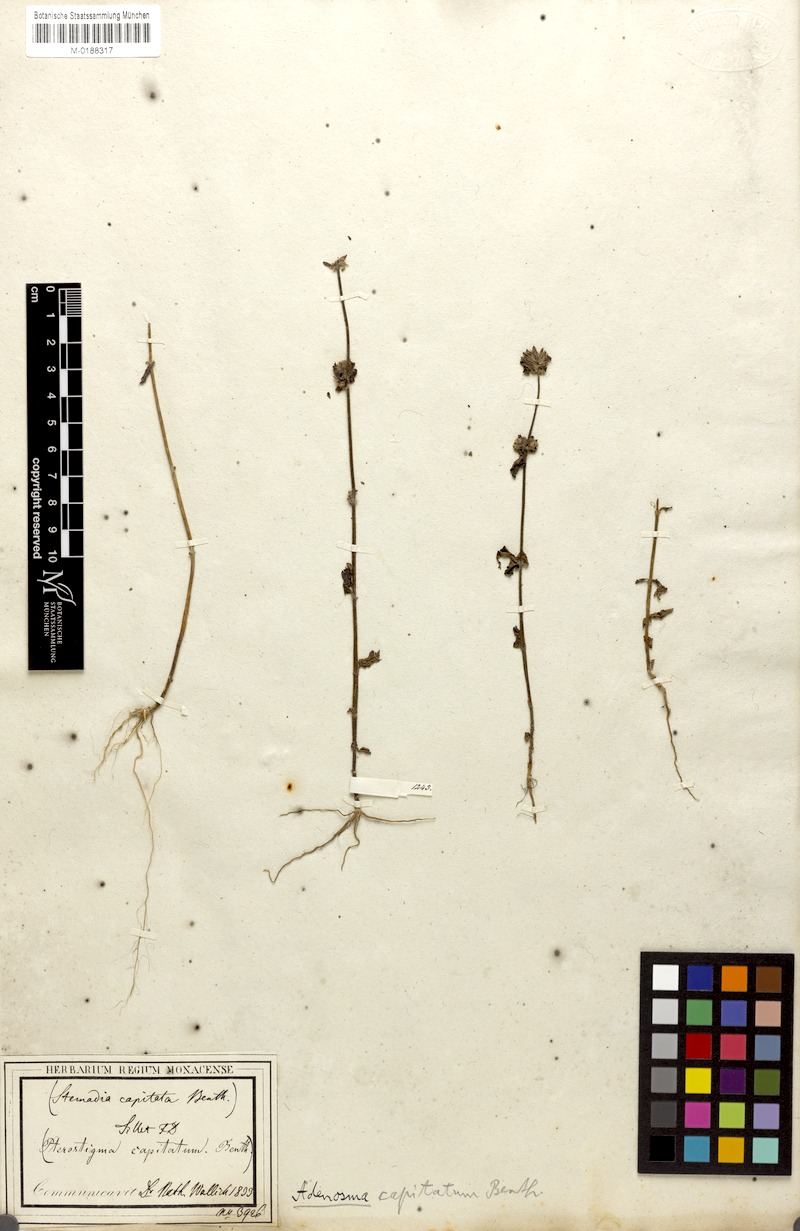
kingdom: Plantae
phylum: Tracheophyta
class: Magnoliopsida
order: Lamiales
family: Plantaginaceae
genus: Adenosma
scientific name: Adenosma indiana
